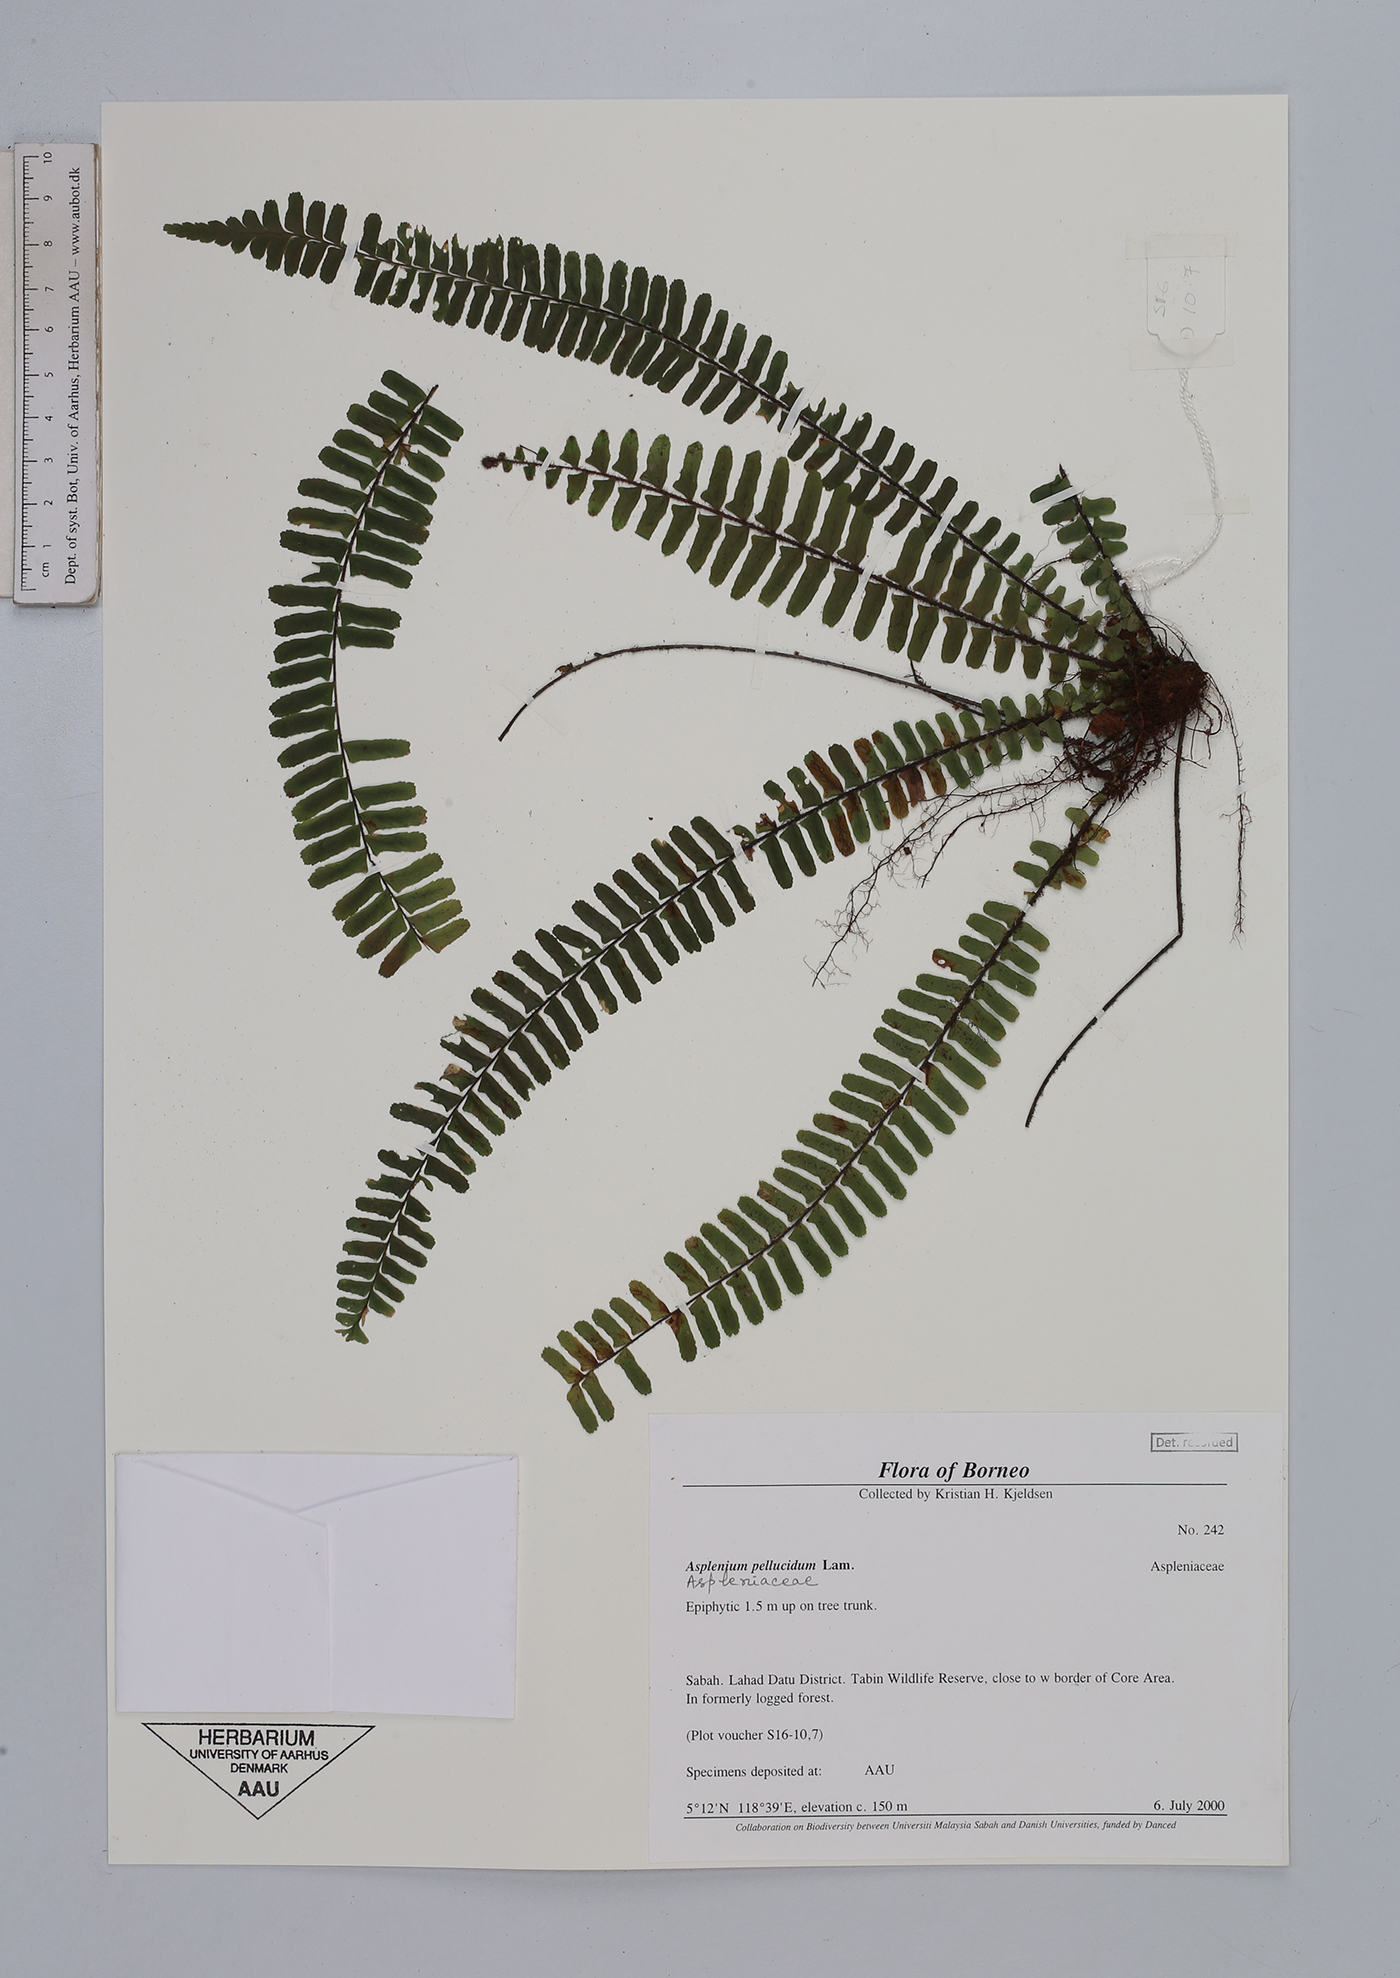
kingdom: Plantae
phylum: Tracheophyta
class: Polypodiopsida
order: Polypodiales
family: Aspleniaceae
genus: Asplenium
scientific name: Asplenium pellucidum
